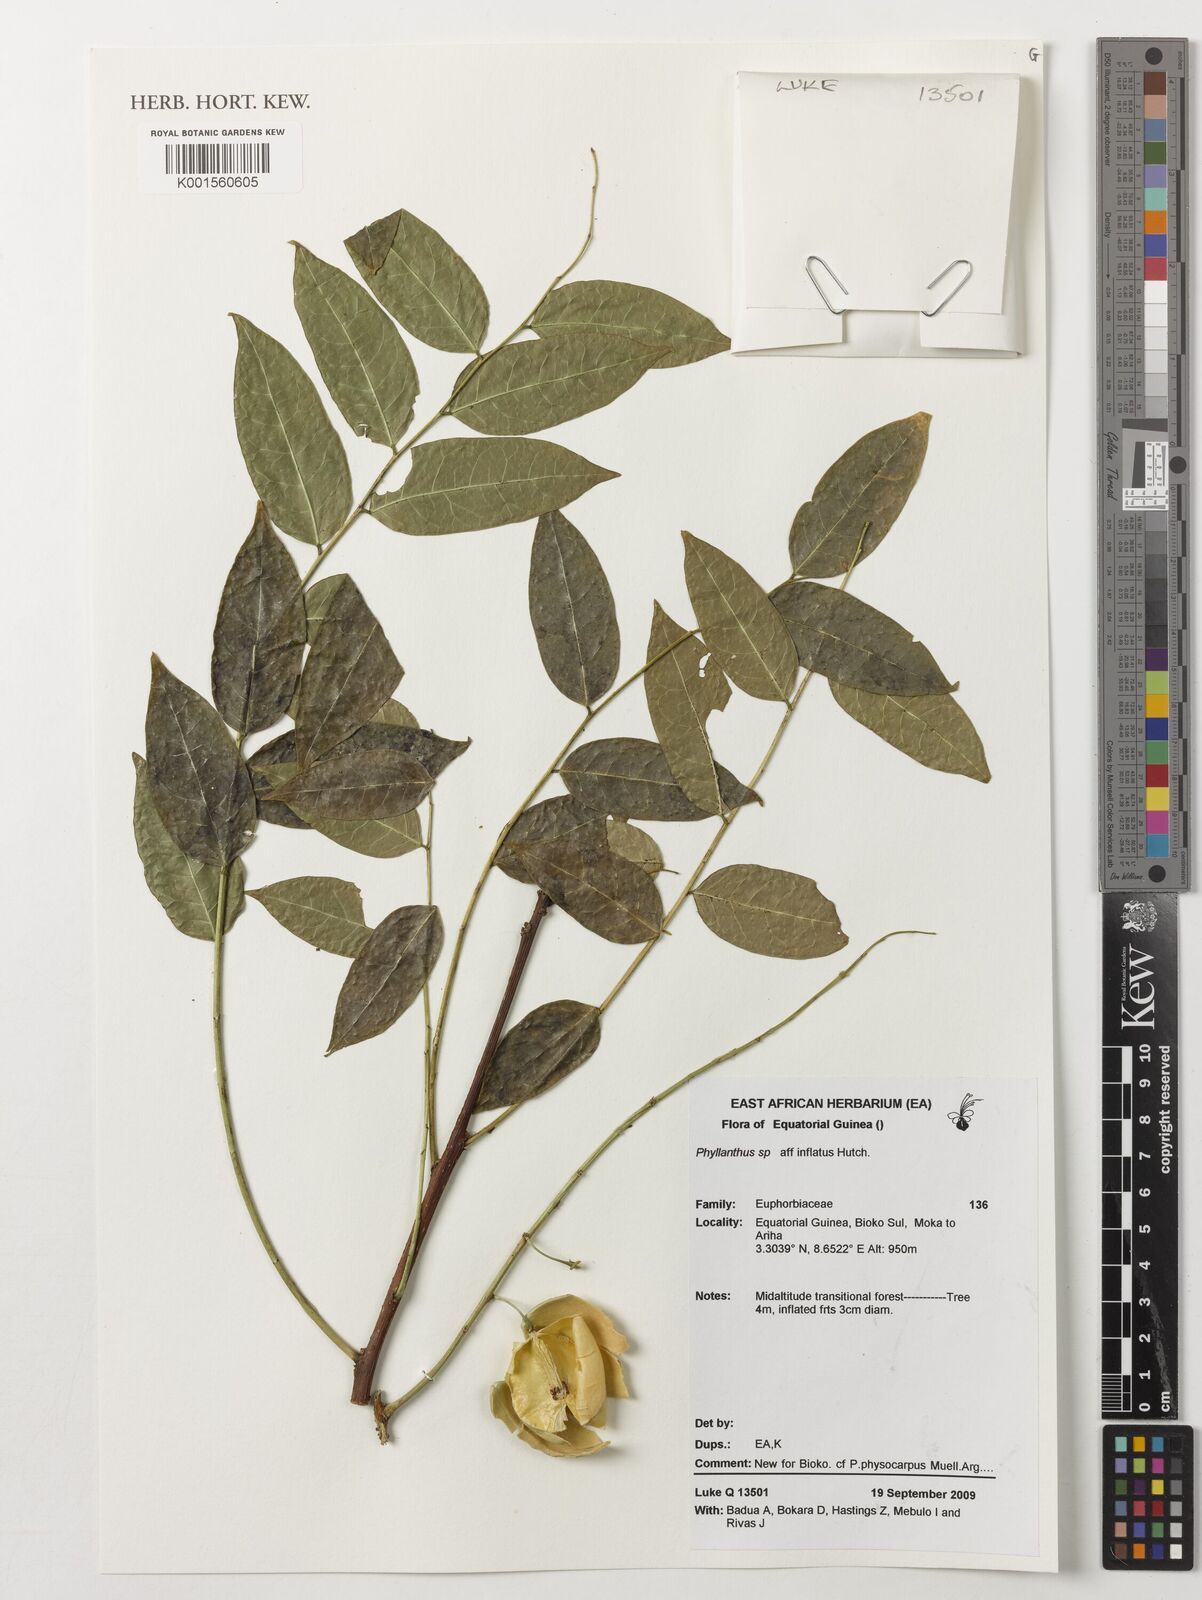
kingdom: Plantae
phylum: Tracheophyta
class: Magnoliopsida
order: Malpighiales
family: Phyllanthaceae
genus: Phyllanthus
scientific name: Phyllanthus inflatus
